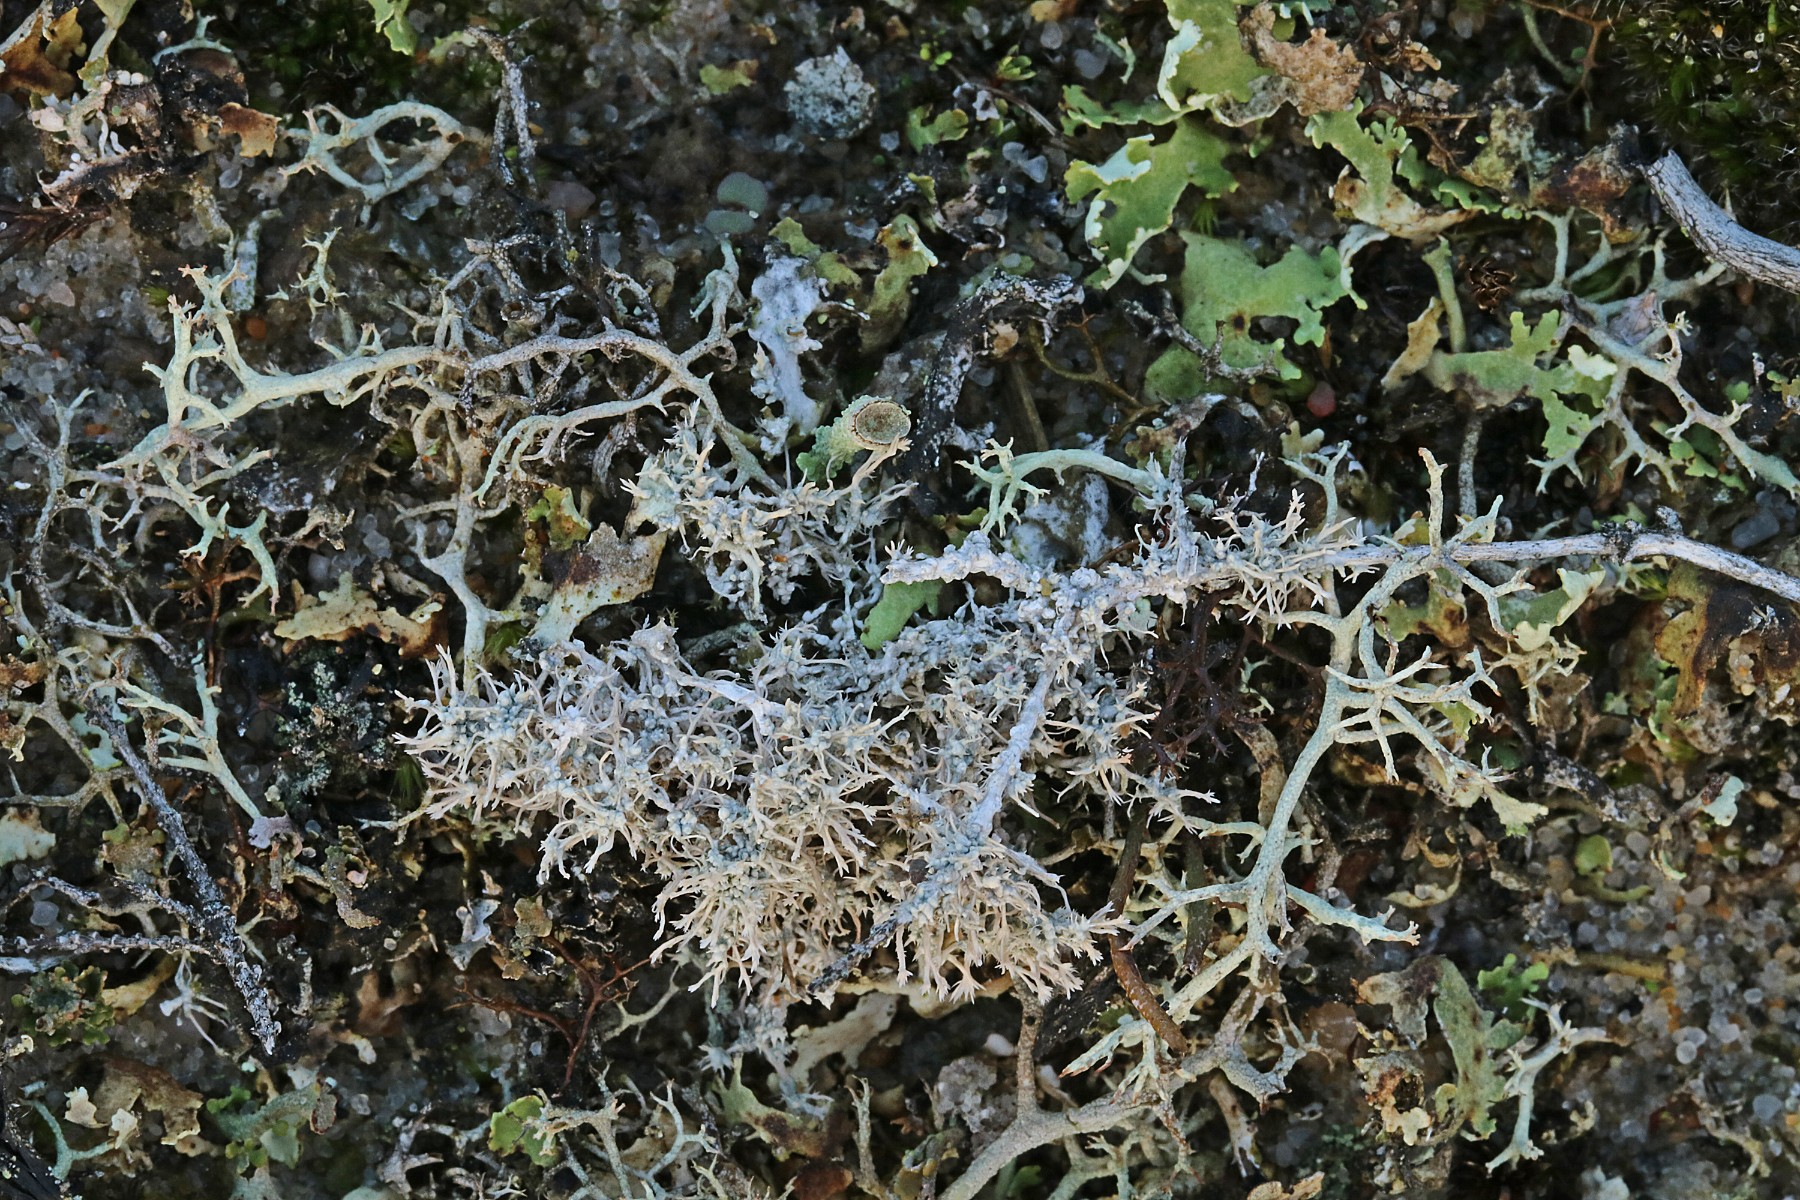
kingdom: Fungi
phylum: Ascomycota
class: Lecanoromycetes
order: Pertusariales
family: Ochrolechiaceae
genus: Ochrolechia
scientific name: Ochrolechia frigida
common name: fjeld-blegskivelav
